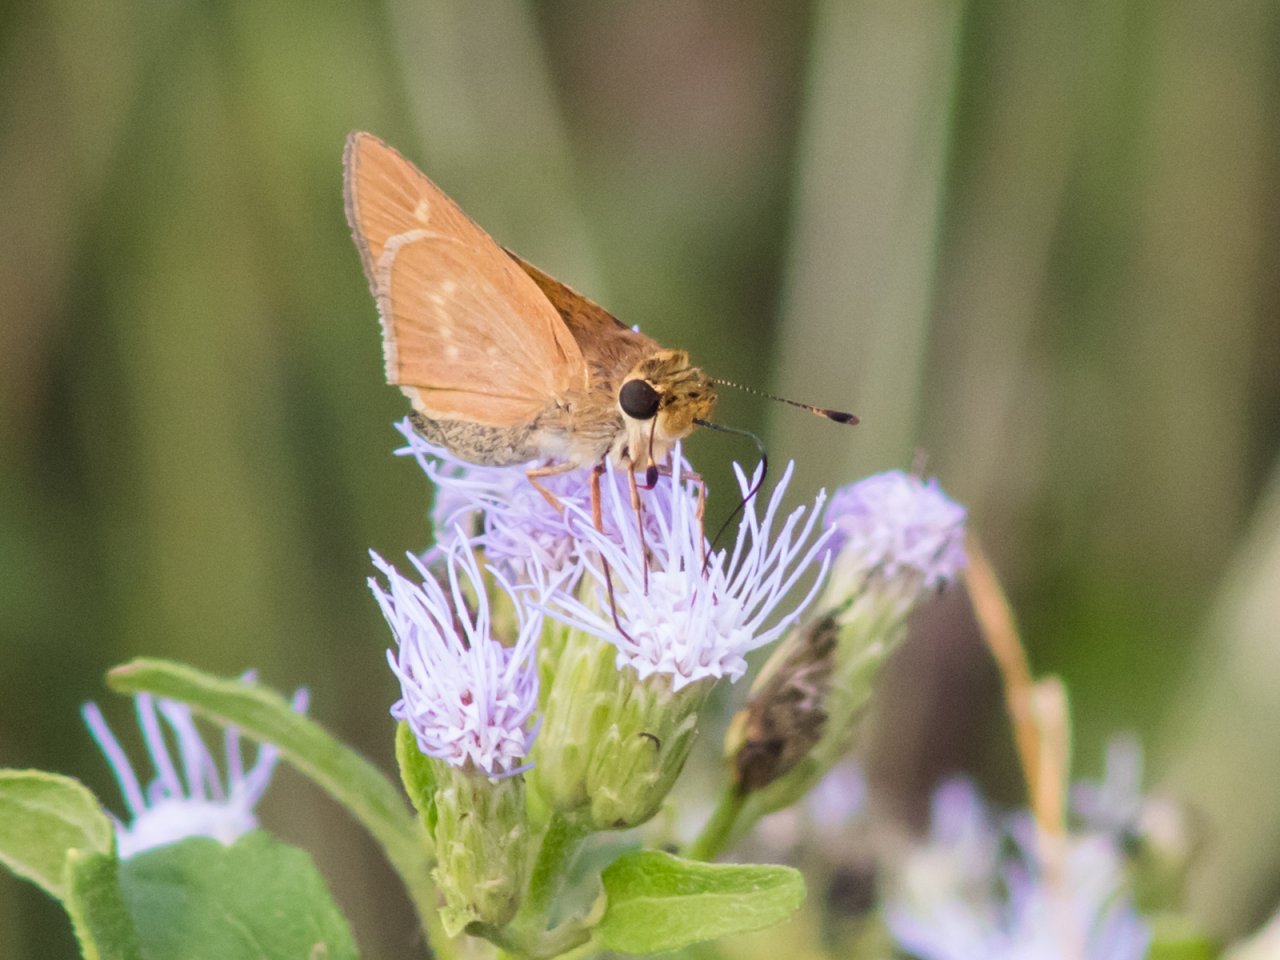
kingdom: Animalia
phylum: Arthropoda
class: Insecta
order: Lepidoptera
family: Hesperiidae
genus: Mellana
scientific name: Mellana eulogius
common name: Common Mellana
